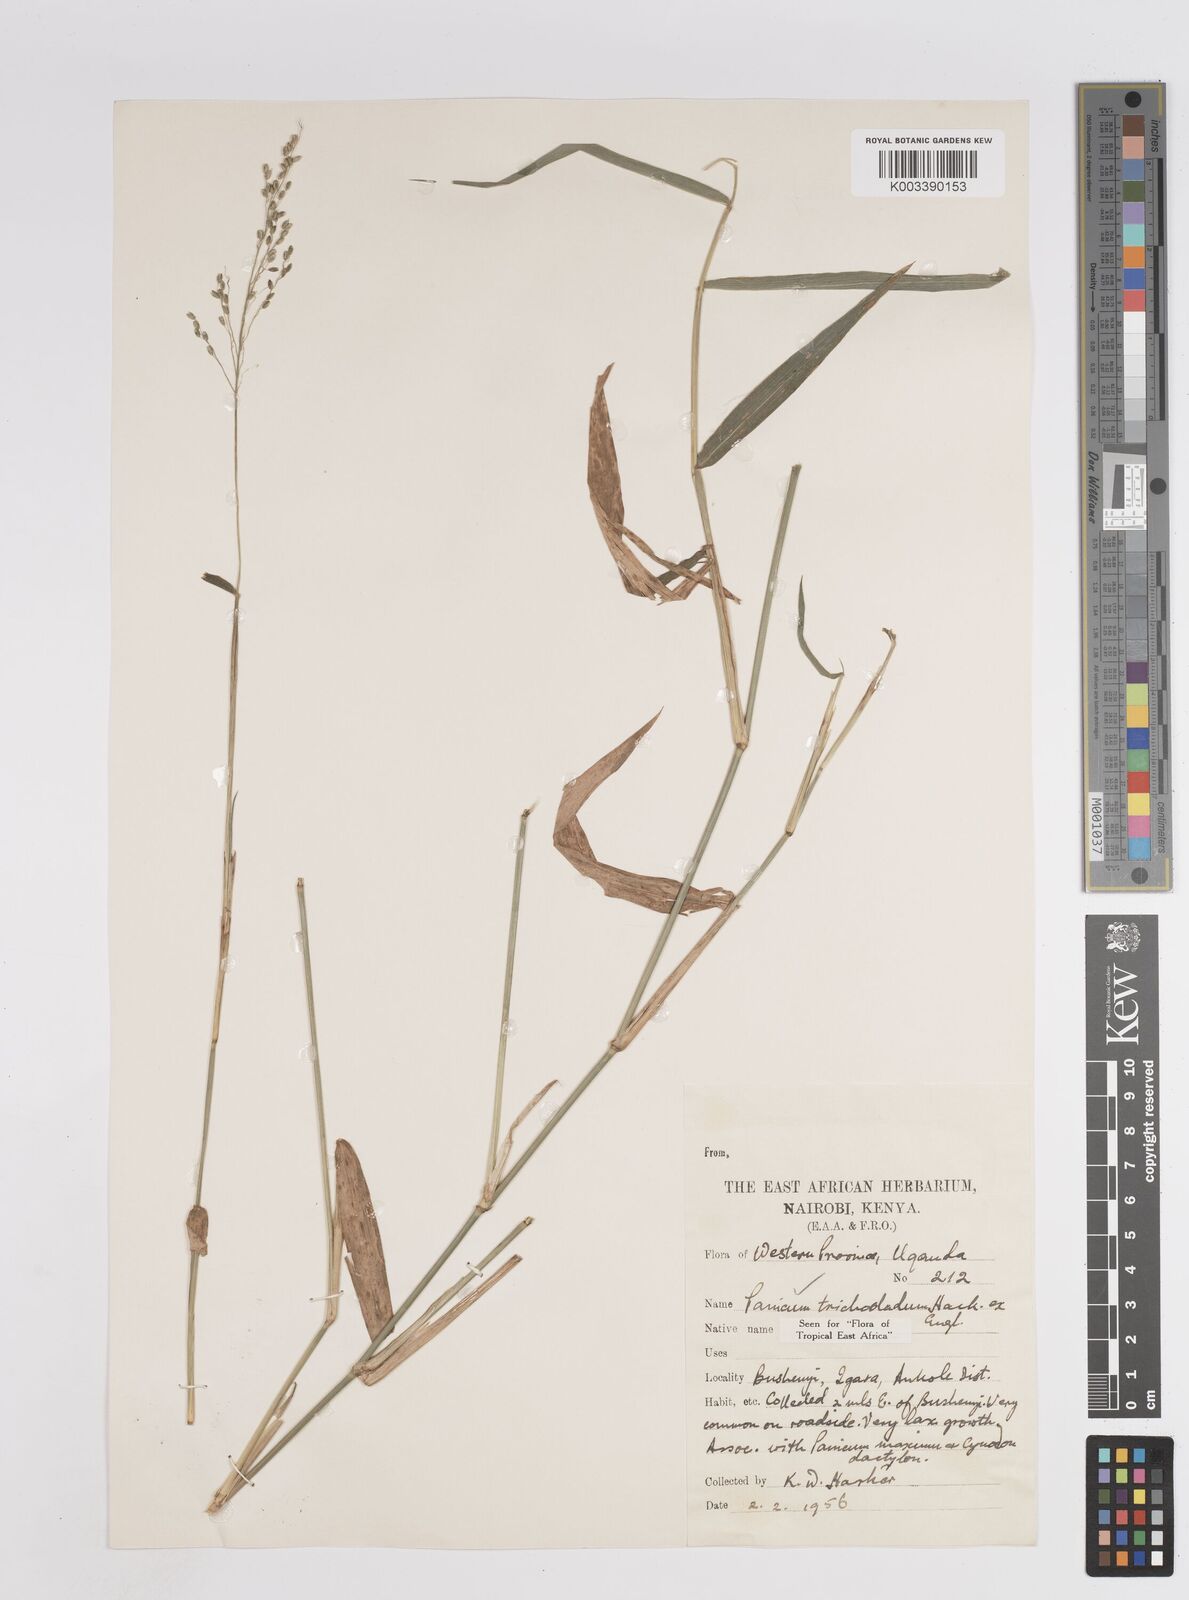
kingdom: Plantae
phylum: Tracheophyta
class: Liliopsida
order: Poales
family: Poaceae
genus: Megathyrsus
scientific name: Megathyrsus maximus
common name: Guineagrass
